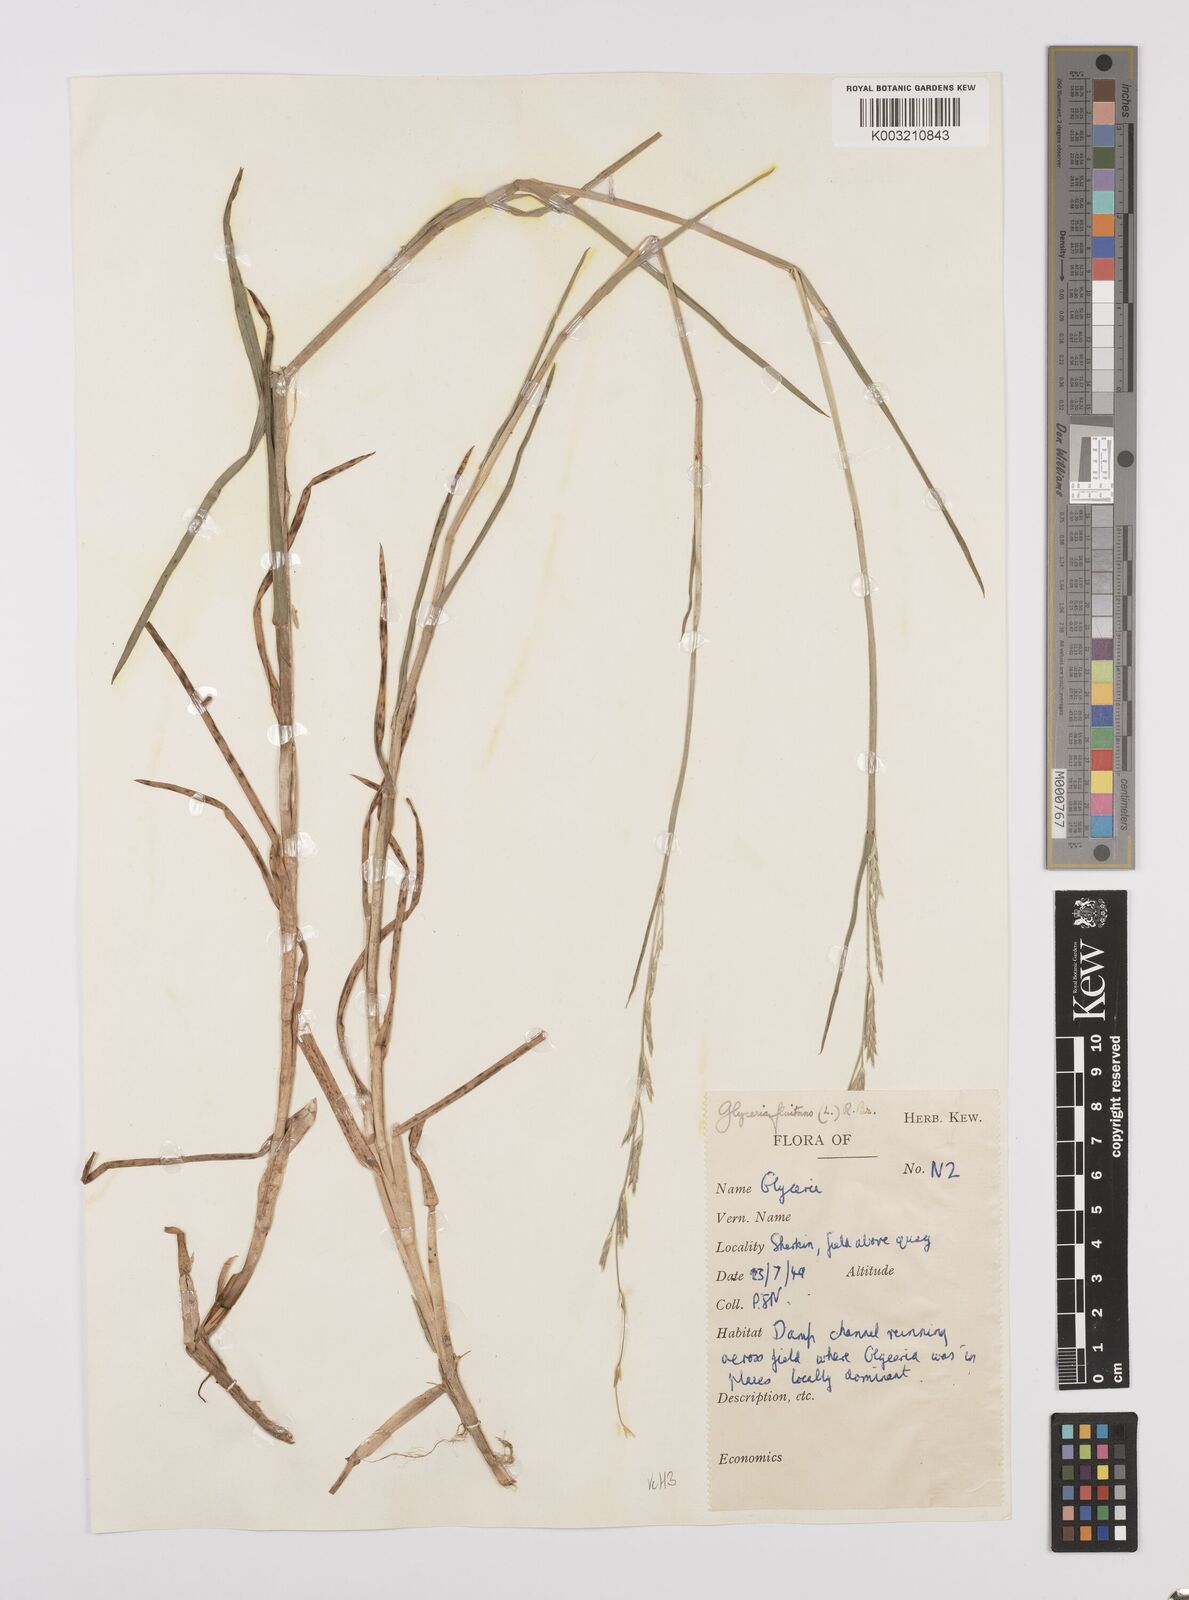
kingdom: Plantae
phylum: Tracheophyta
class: Liliopsida
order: Poales
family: Poaceae
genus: Glyceria
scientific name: Glyceria fluitans
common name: Floating sweet-grass
